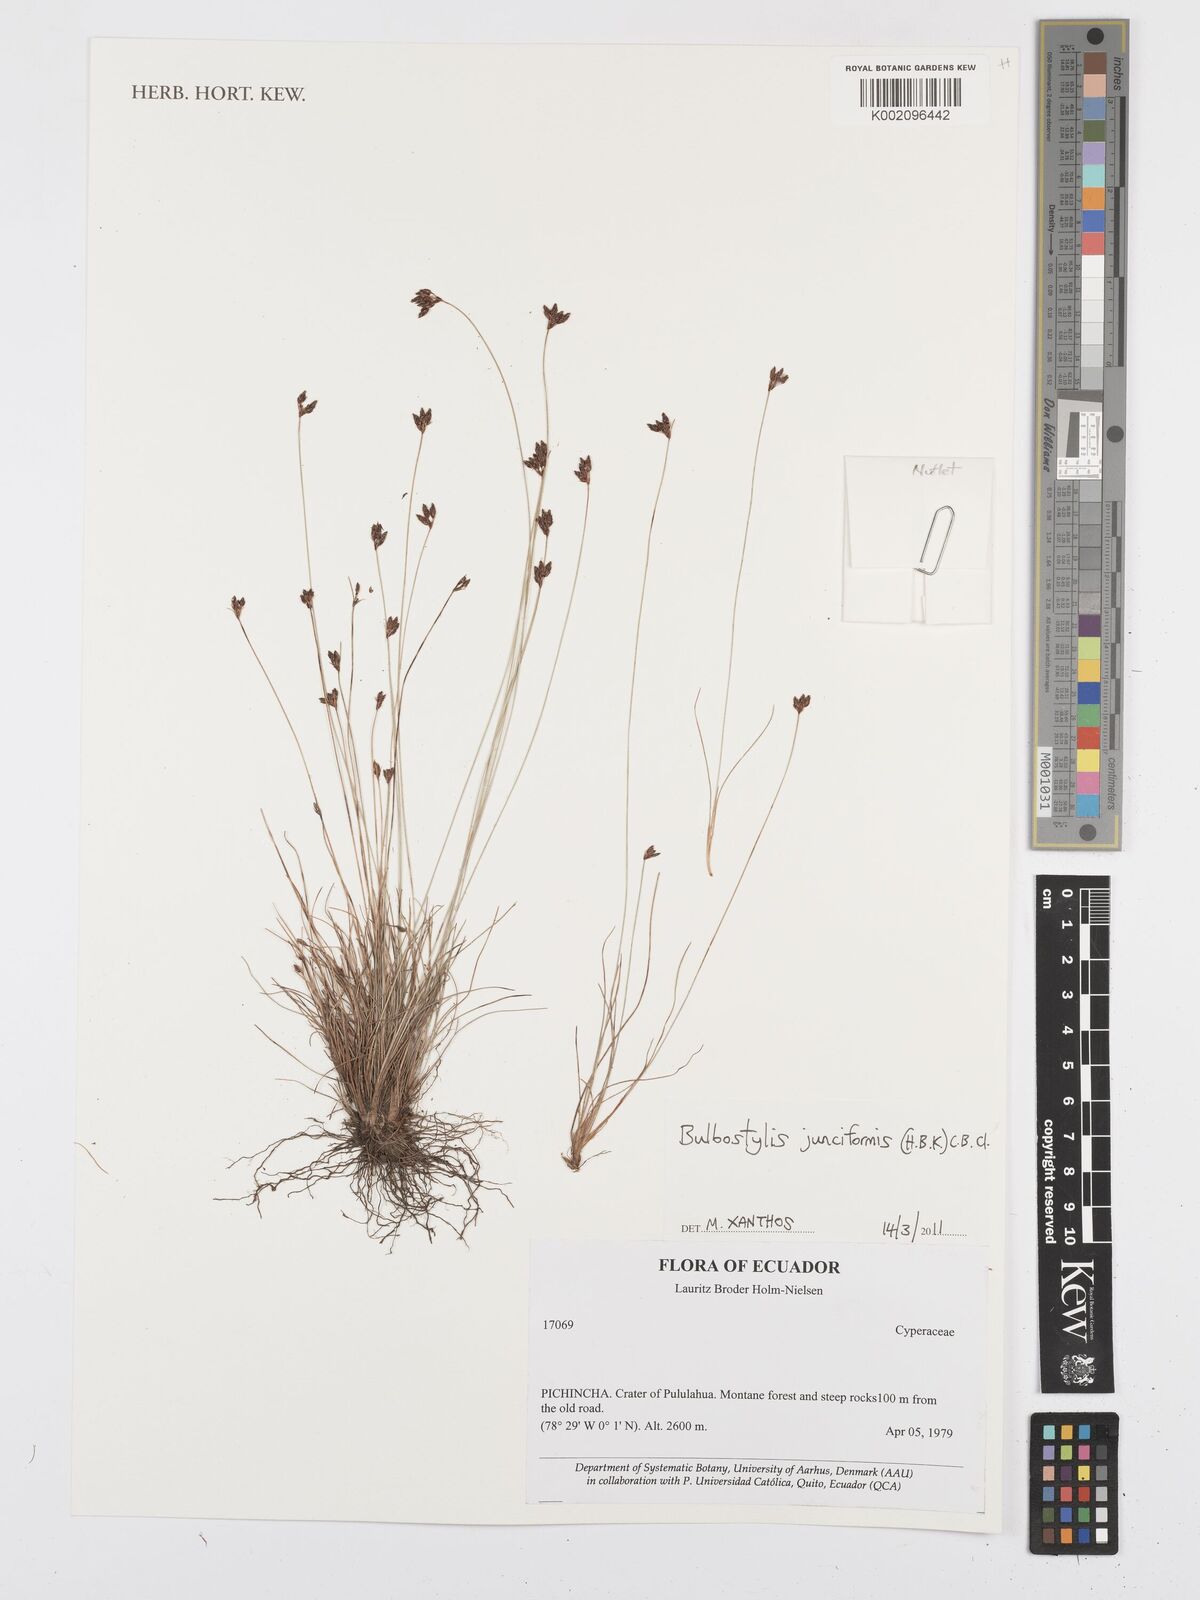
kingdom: Plantae
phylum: Tracheophyta
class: Liliopsida
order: Poales
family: Cyperaceae
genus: Bulbostylis
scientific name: Bulbostylis junciformis
